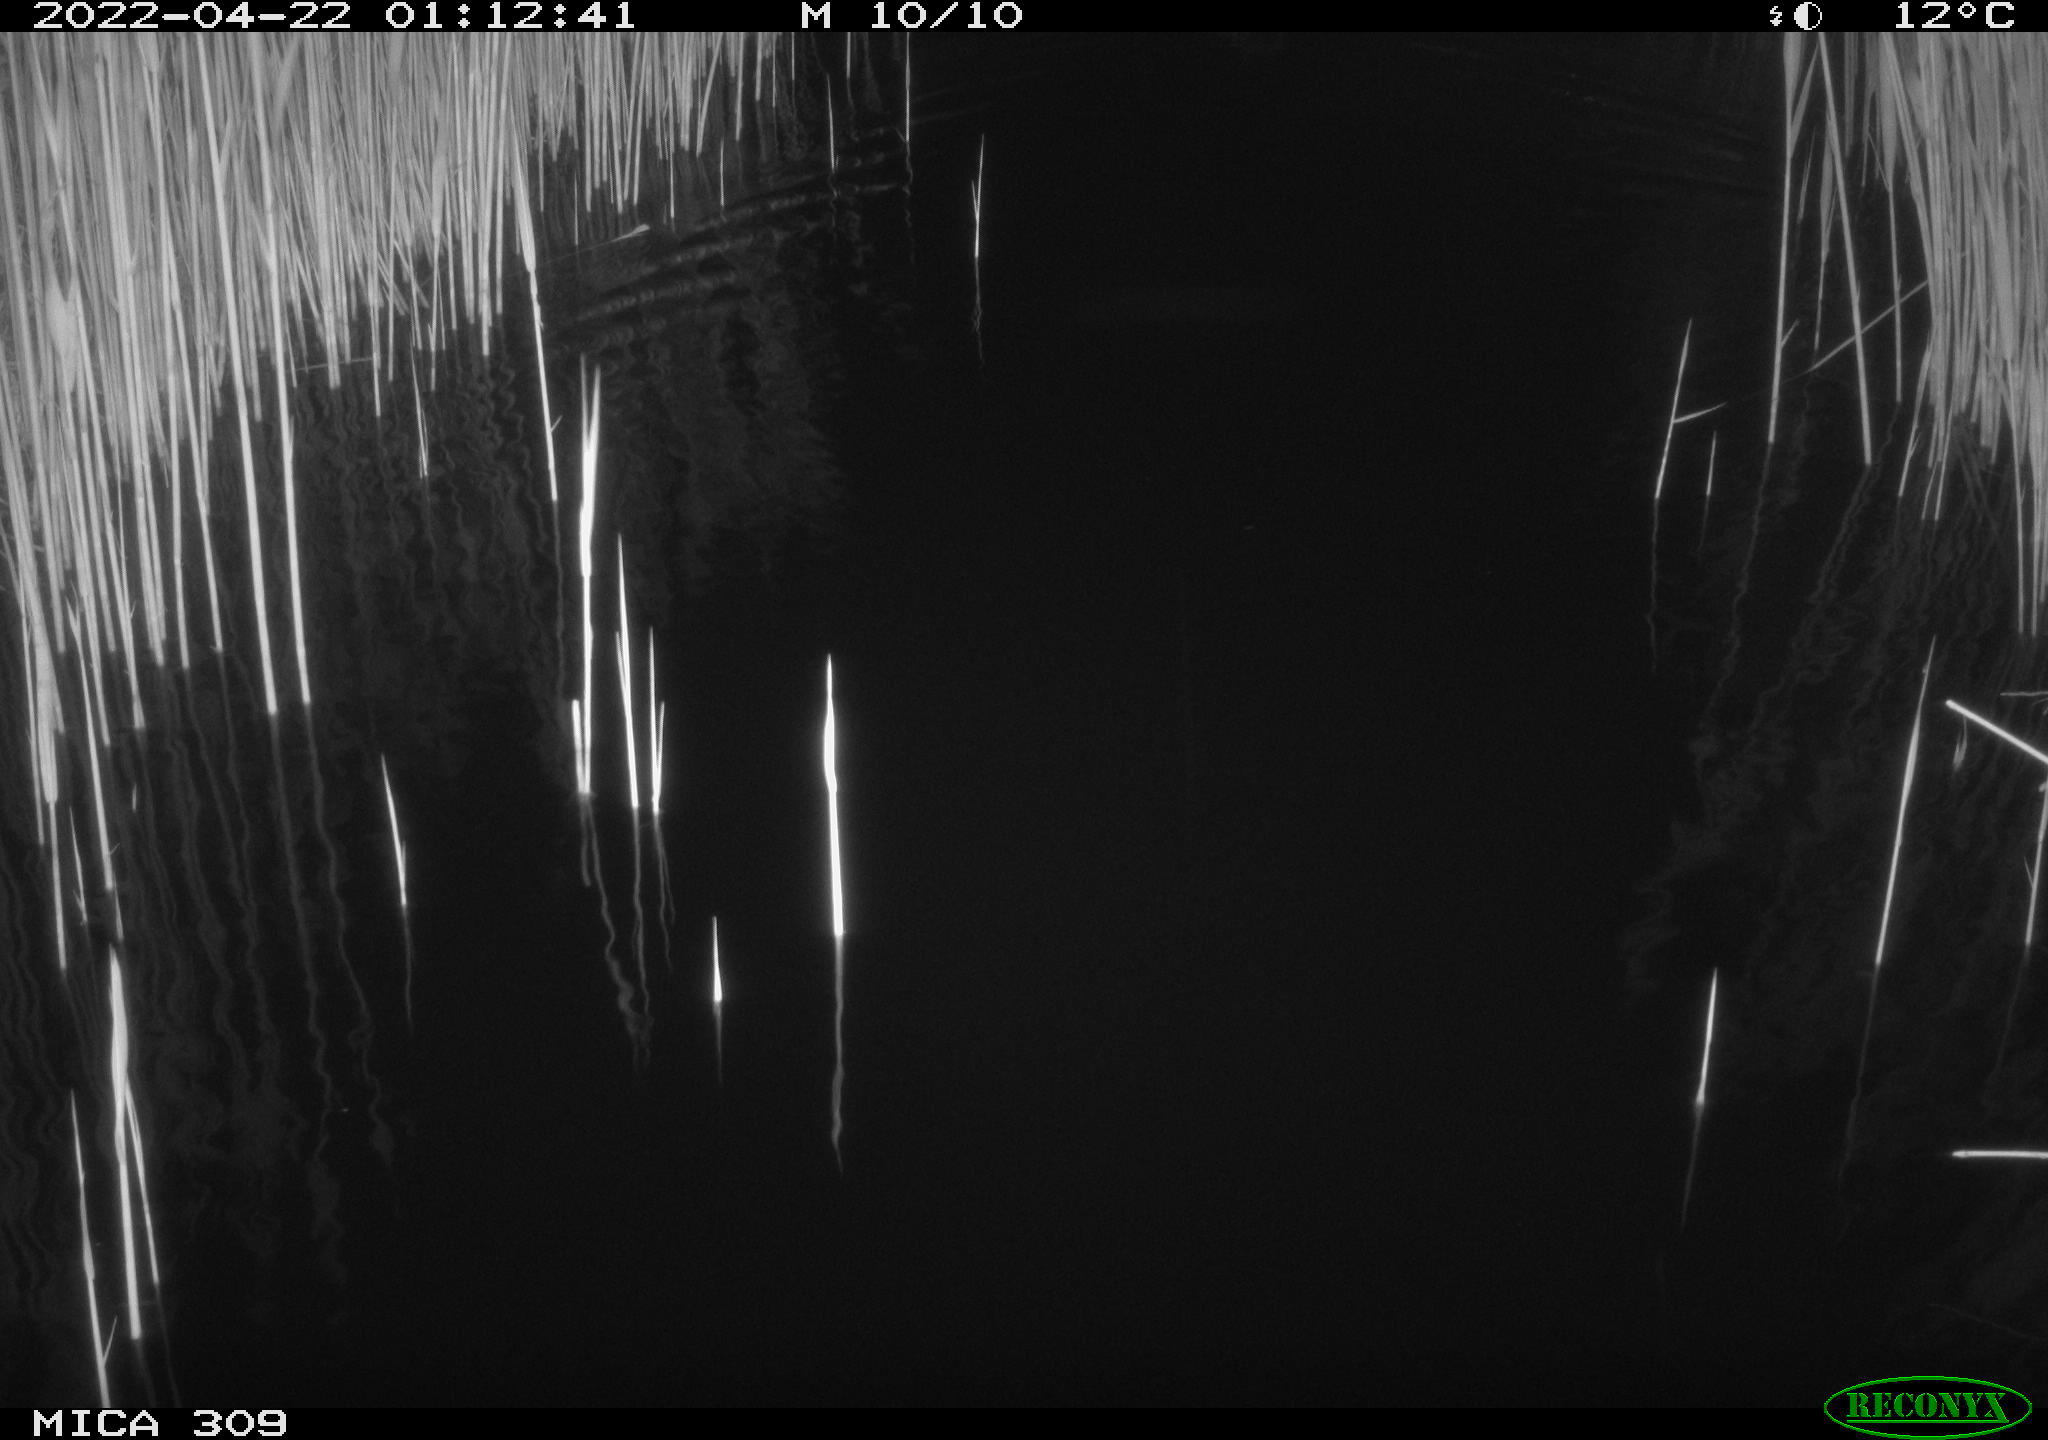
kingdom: Animalia
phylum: Chordata
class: Aves
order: Anseriformes
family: Anatidae
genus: Anas
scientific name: Anas platyrhynchos
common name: Mallard
